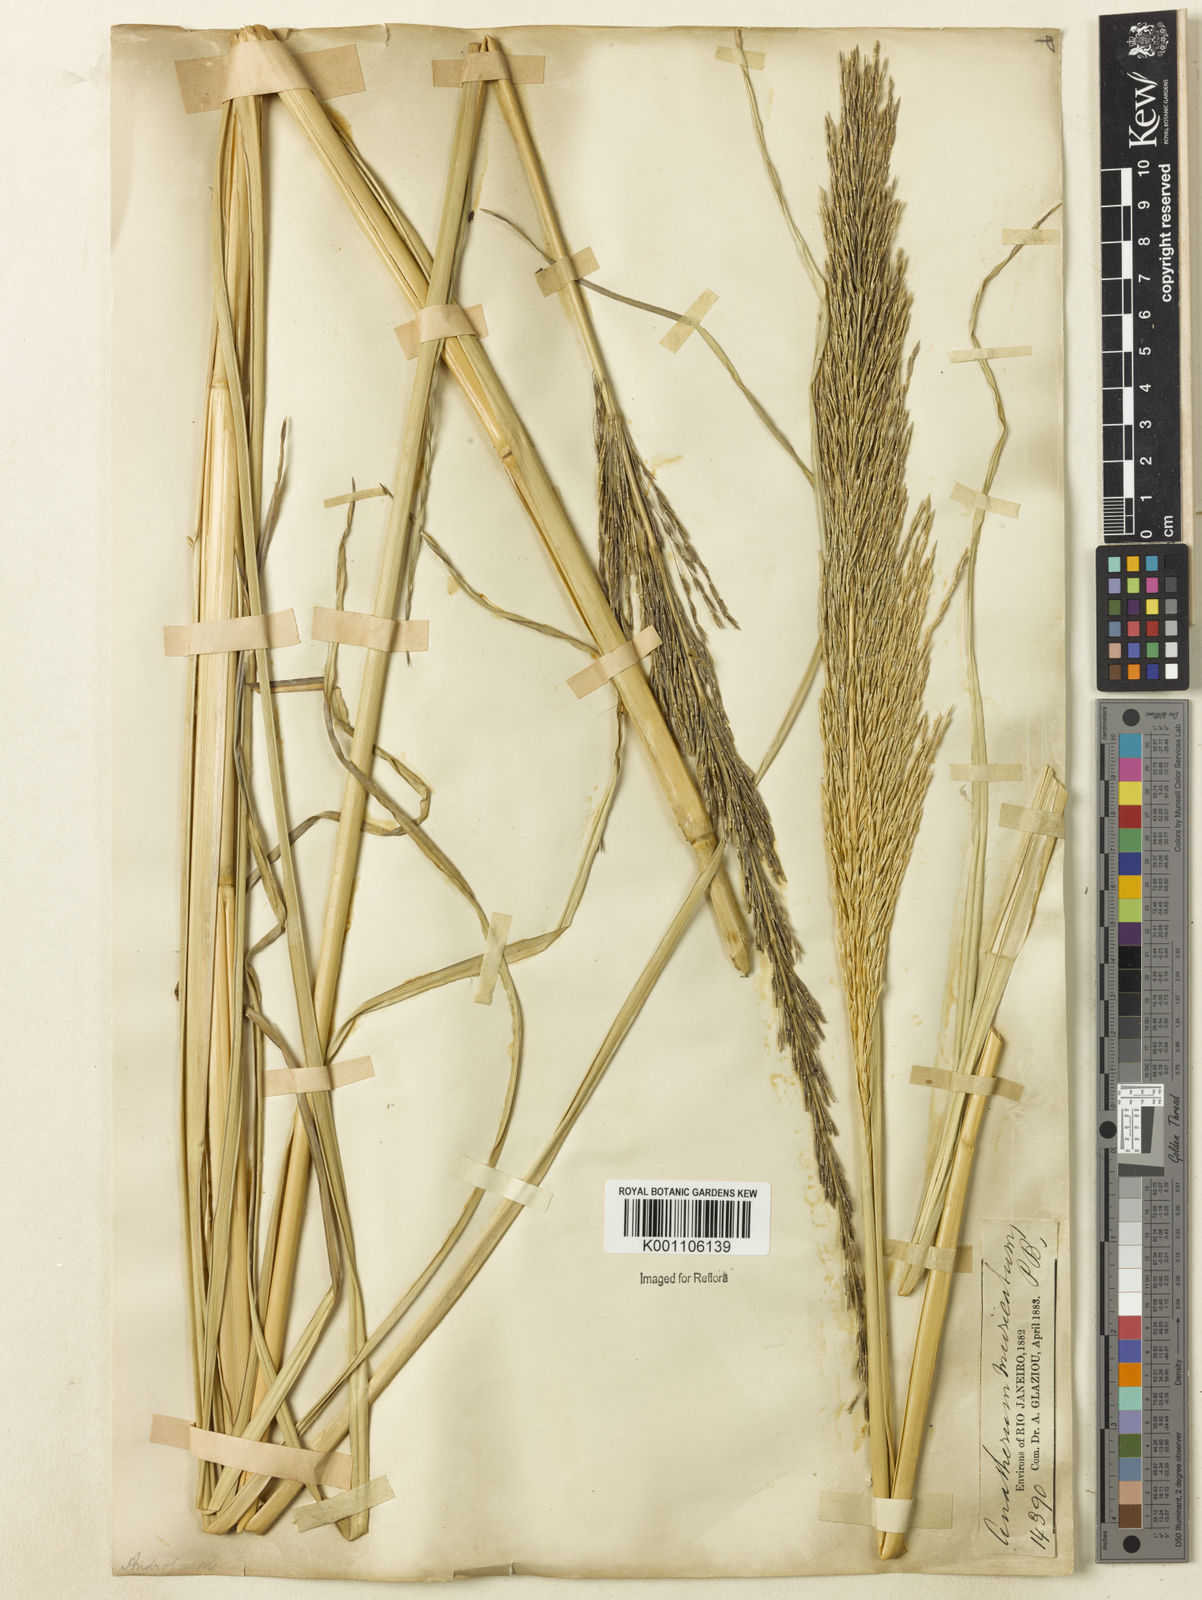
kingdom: Plantae
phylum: Tracheophyta
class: Liliopsida
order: Poales
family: Poaceae
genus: Chrysopogon
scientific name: Chrysopogon zizanioides
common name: False beardgrass
